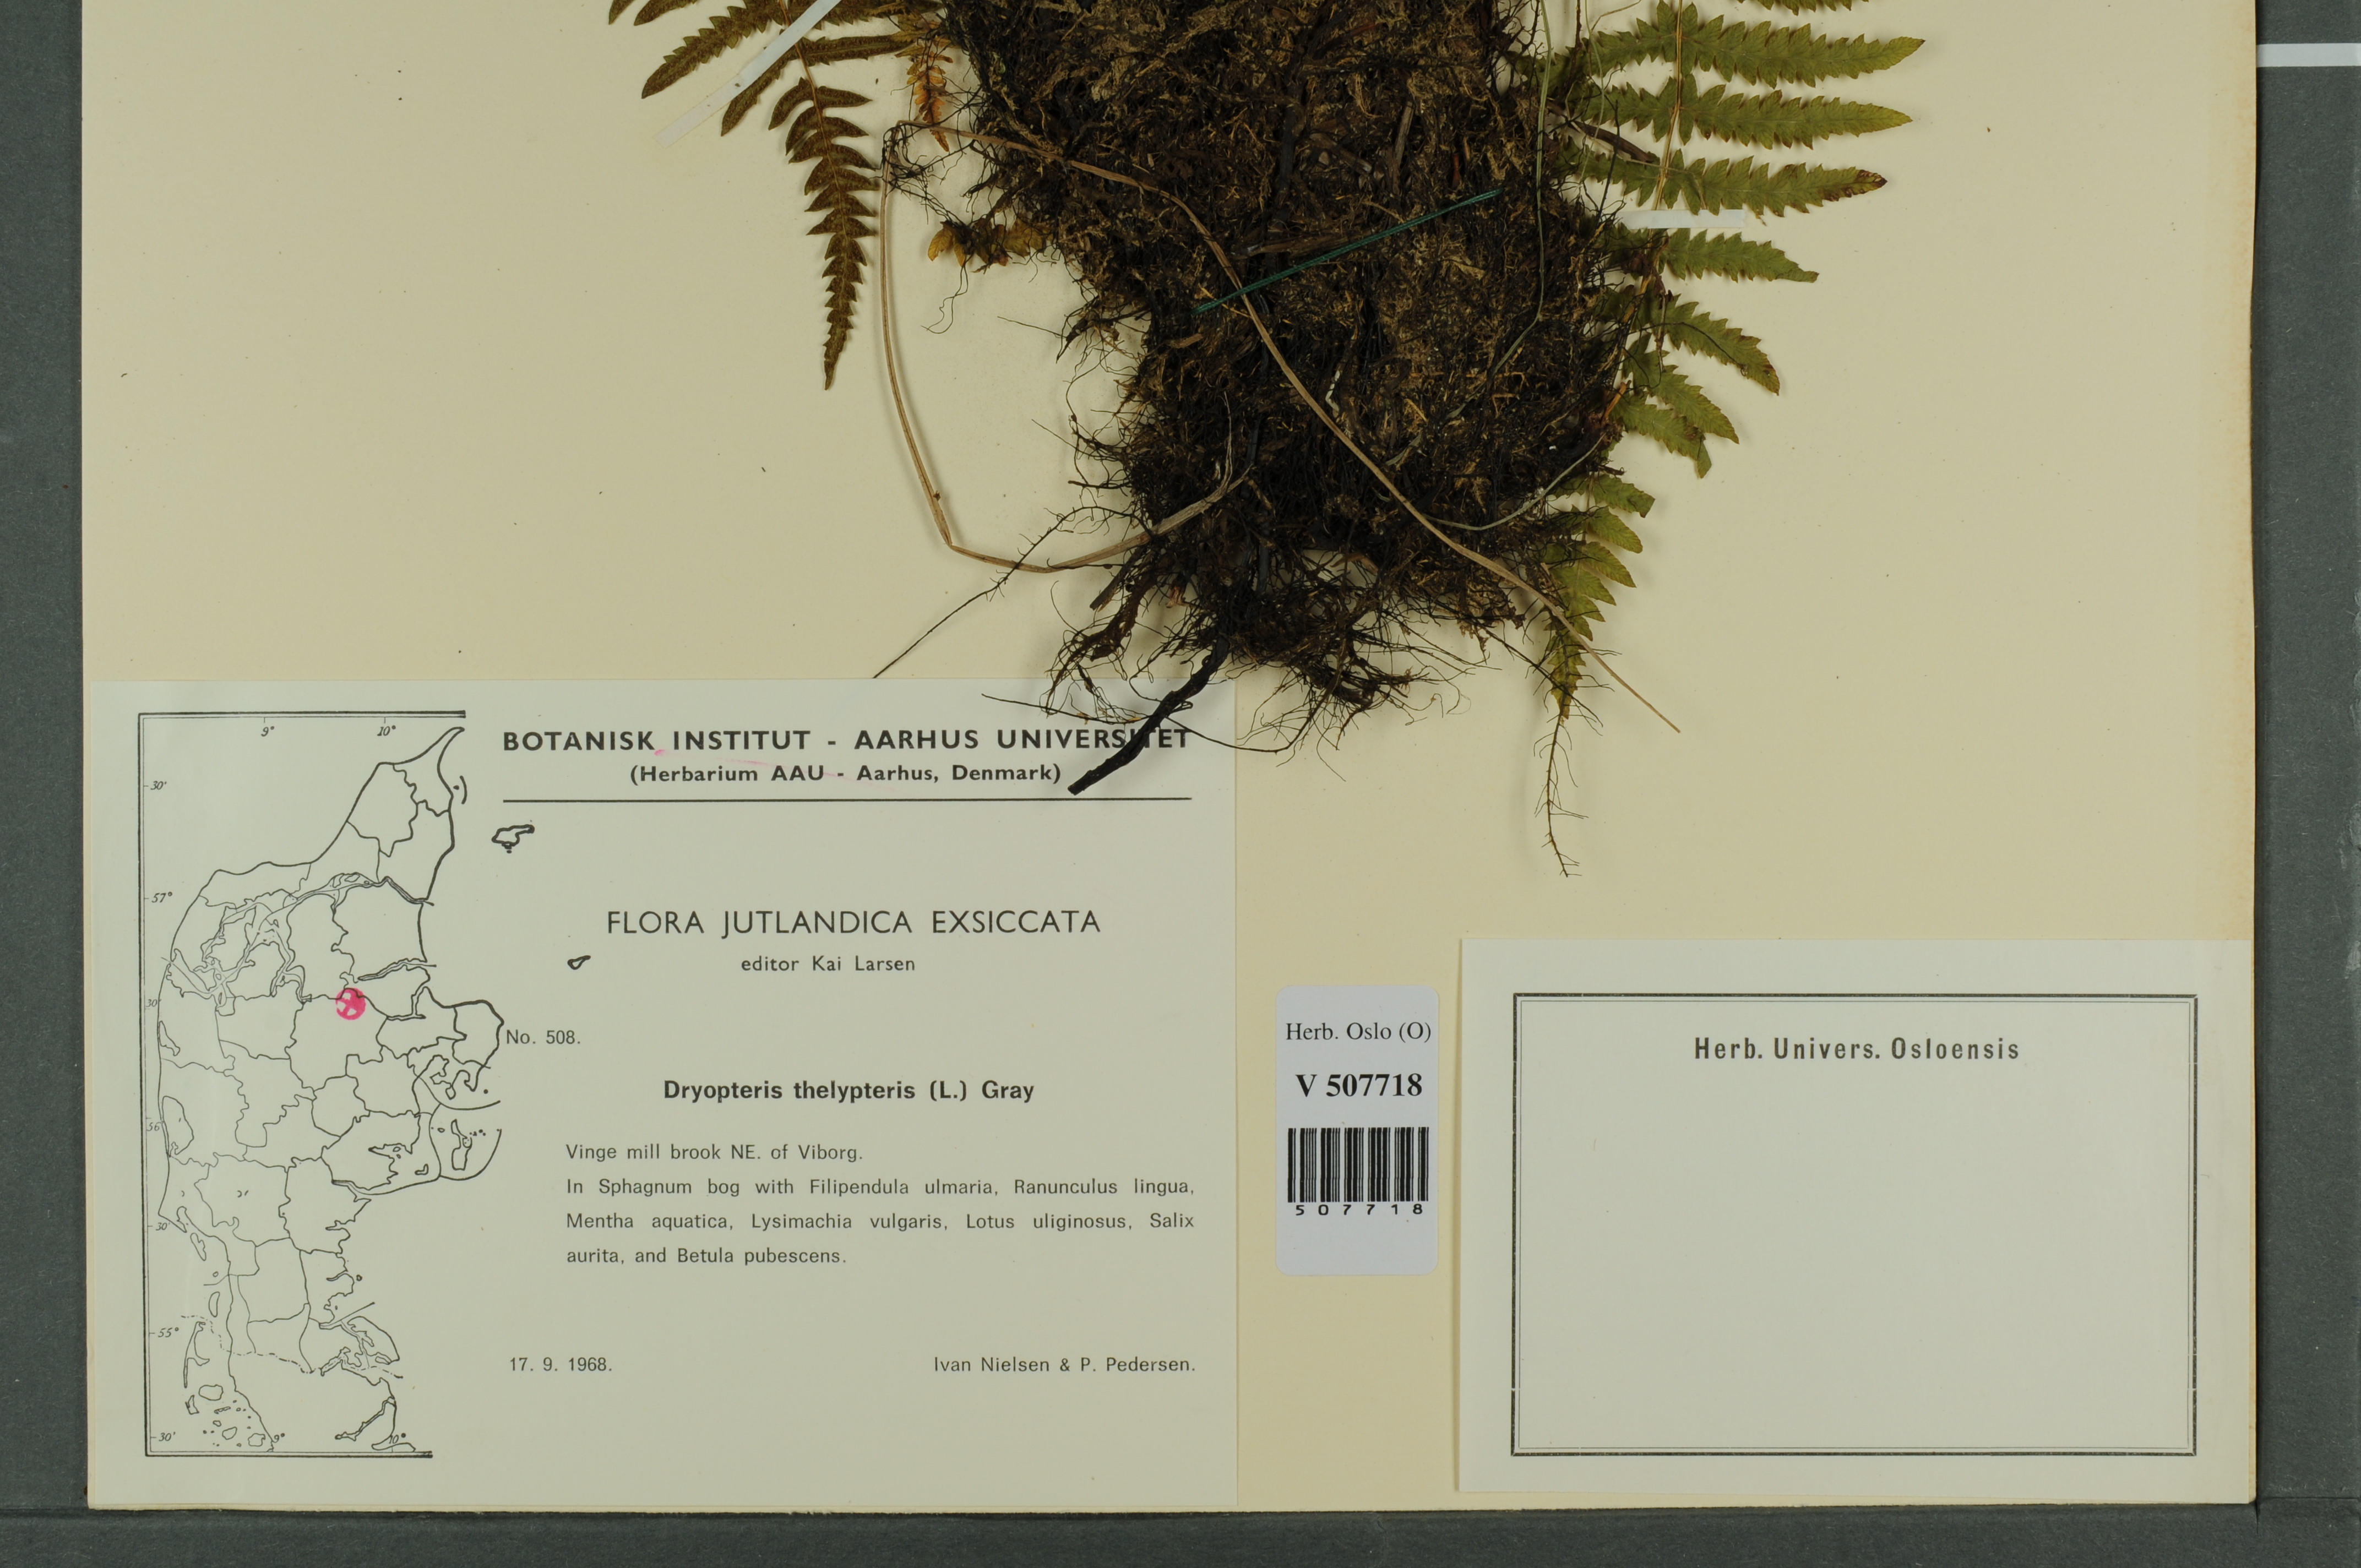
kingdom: Plantae
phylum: Tracheophyta
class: Polypodiopsida
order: Polypodiales
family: Thelypteridaceae
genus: Thelypteris
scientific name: Thelypteris palustris
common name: Marsh fern
